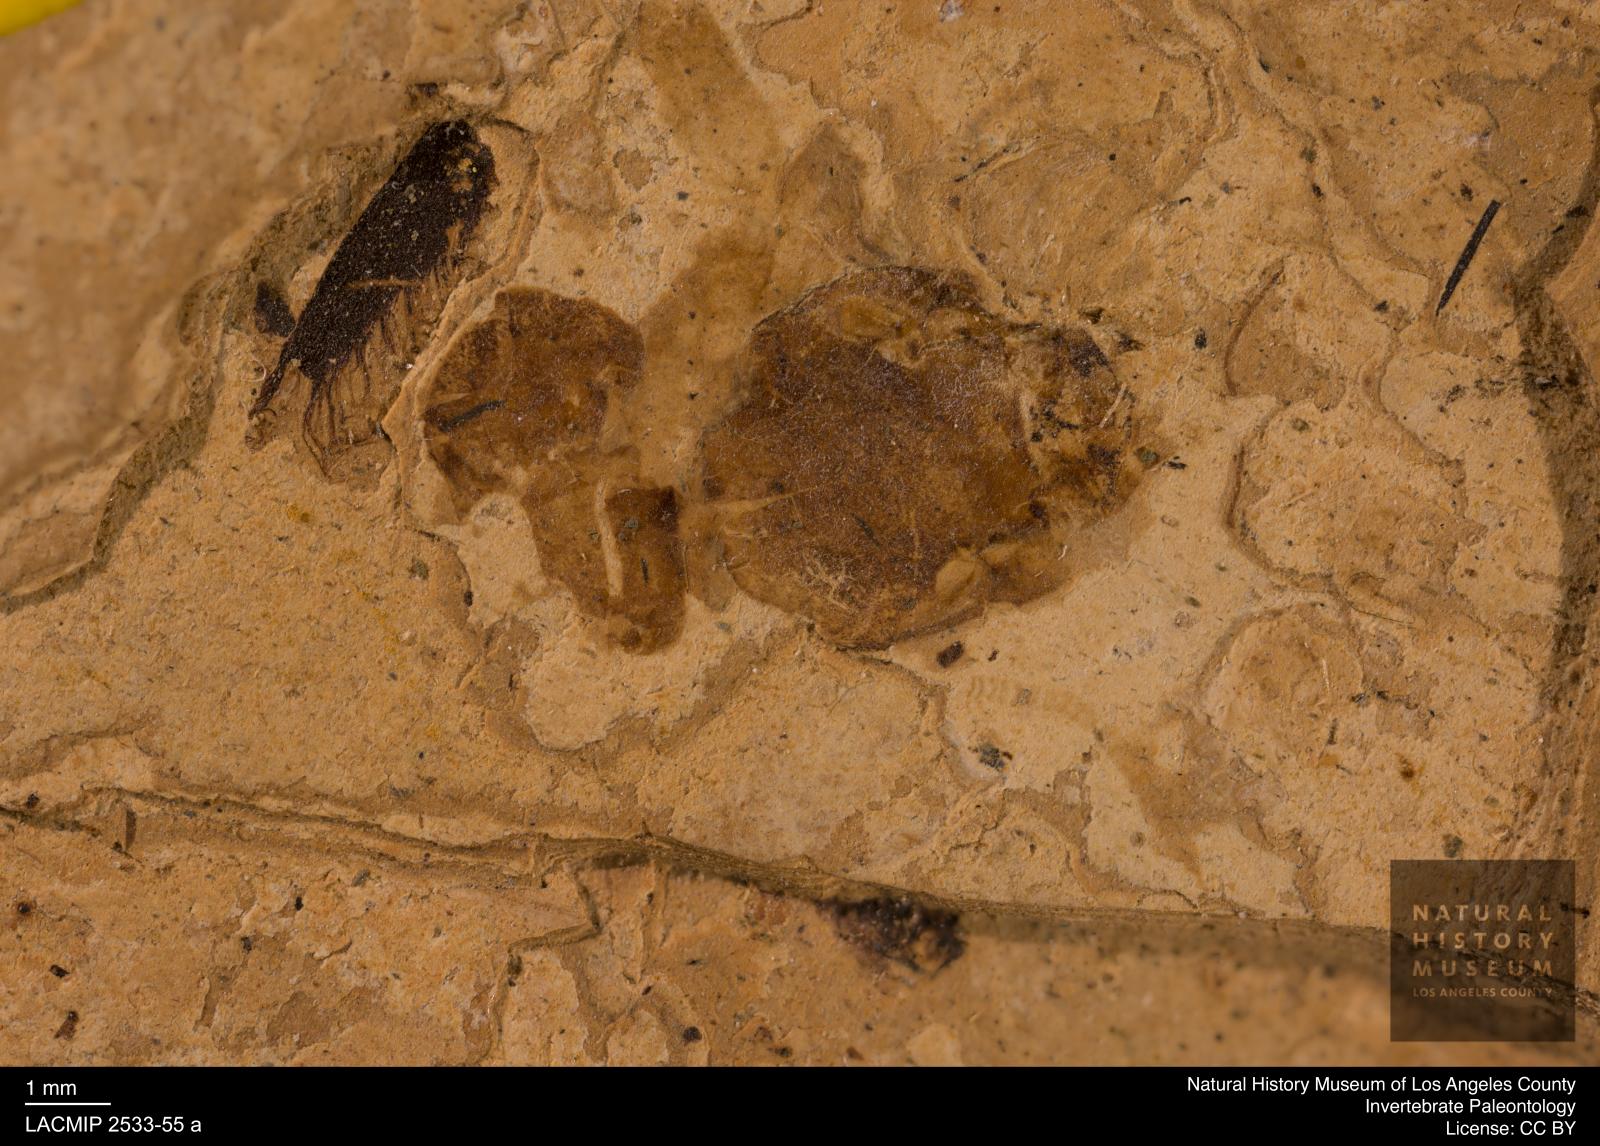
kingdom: Animalia
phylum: Arthropoda
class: Insecta
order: Blattodea
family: Kalotermitidae
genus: Eotermes
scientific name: Eotermes grandaeva
